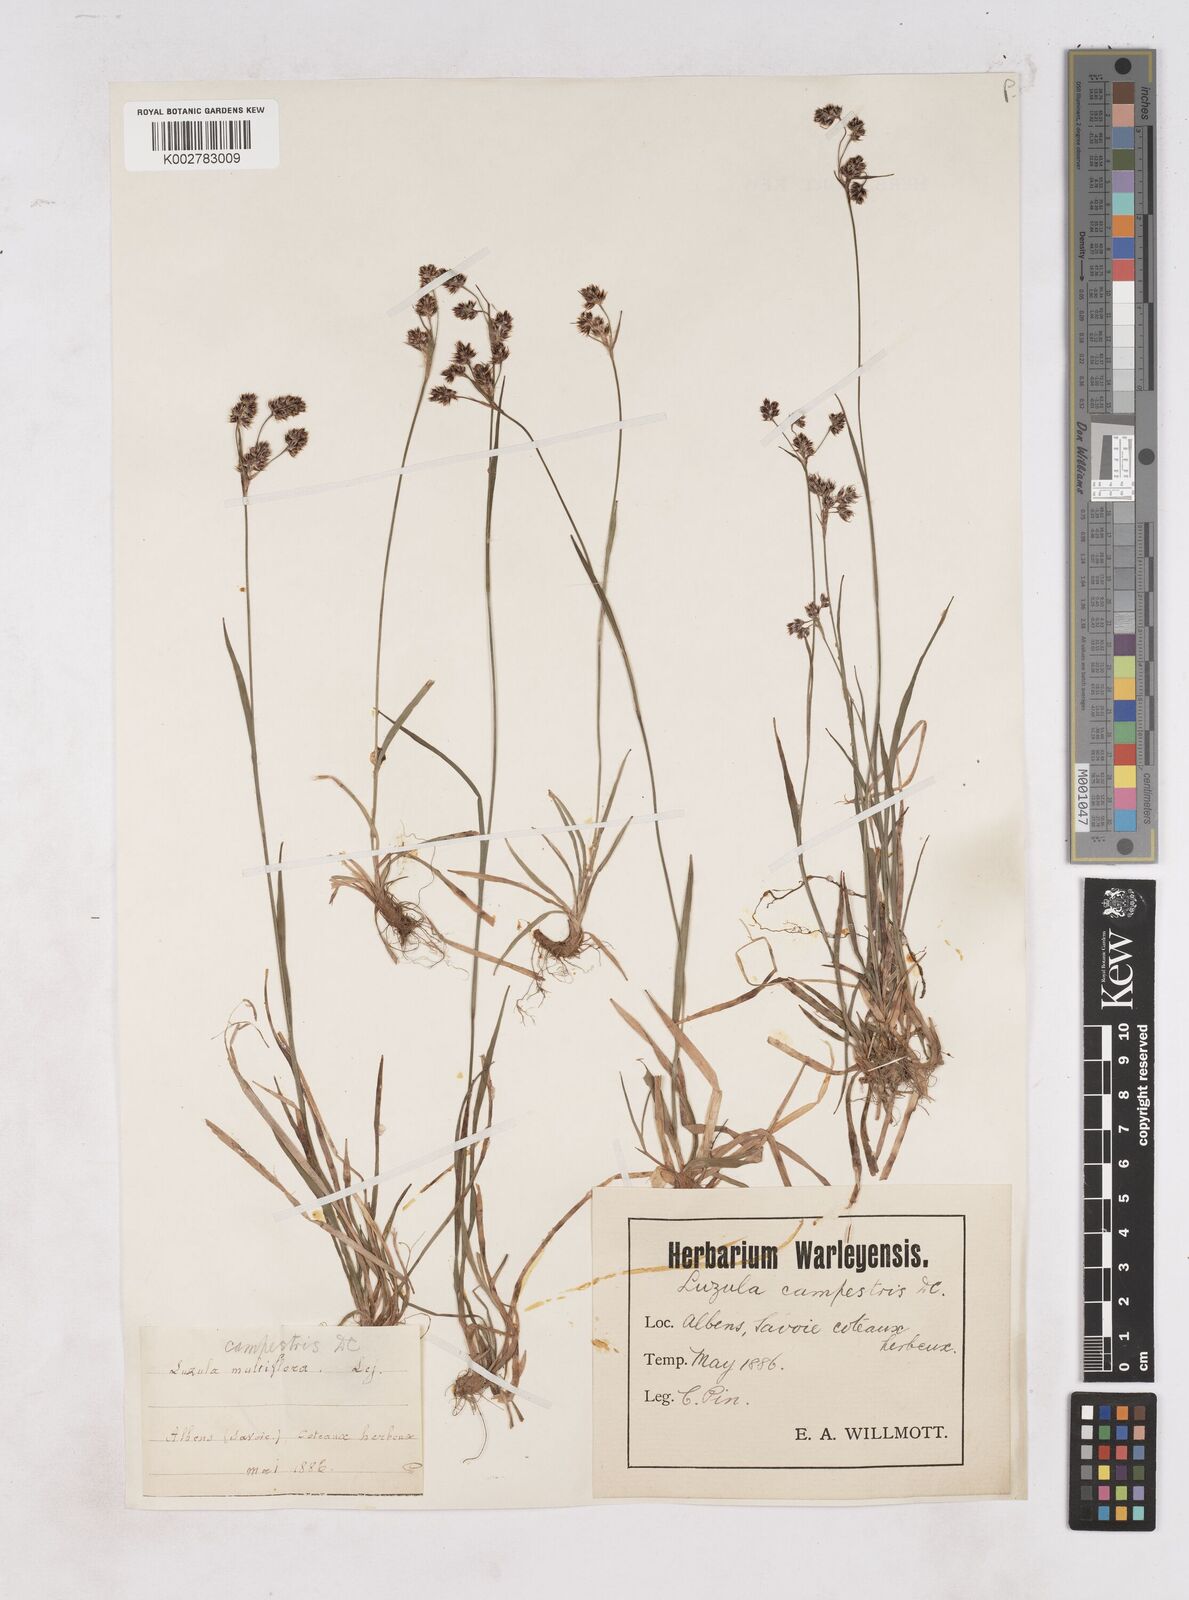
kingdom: Plantae
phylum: Tracheophyta
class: Liliopsida
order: Poales
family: Juncaceae
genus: Luzula
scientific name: Luzula campestris
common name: Field wood-rush
